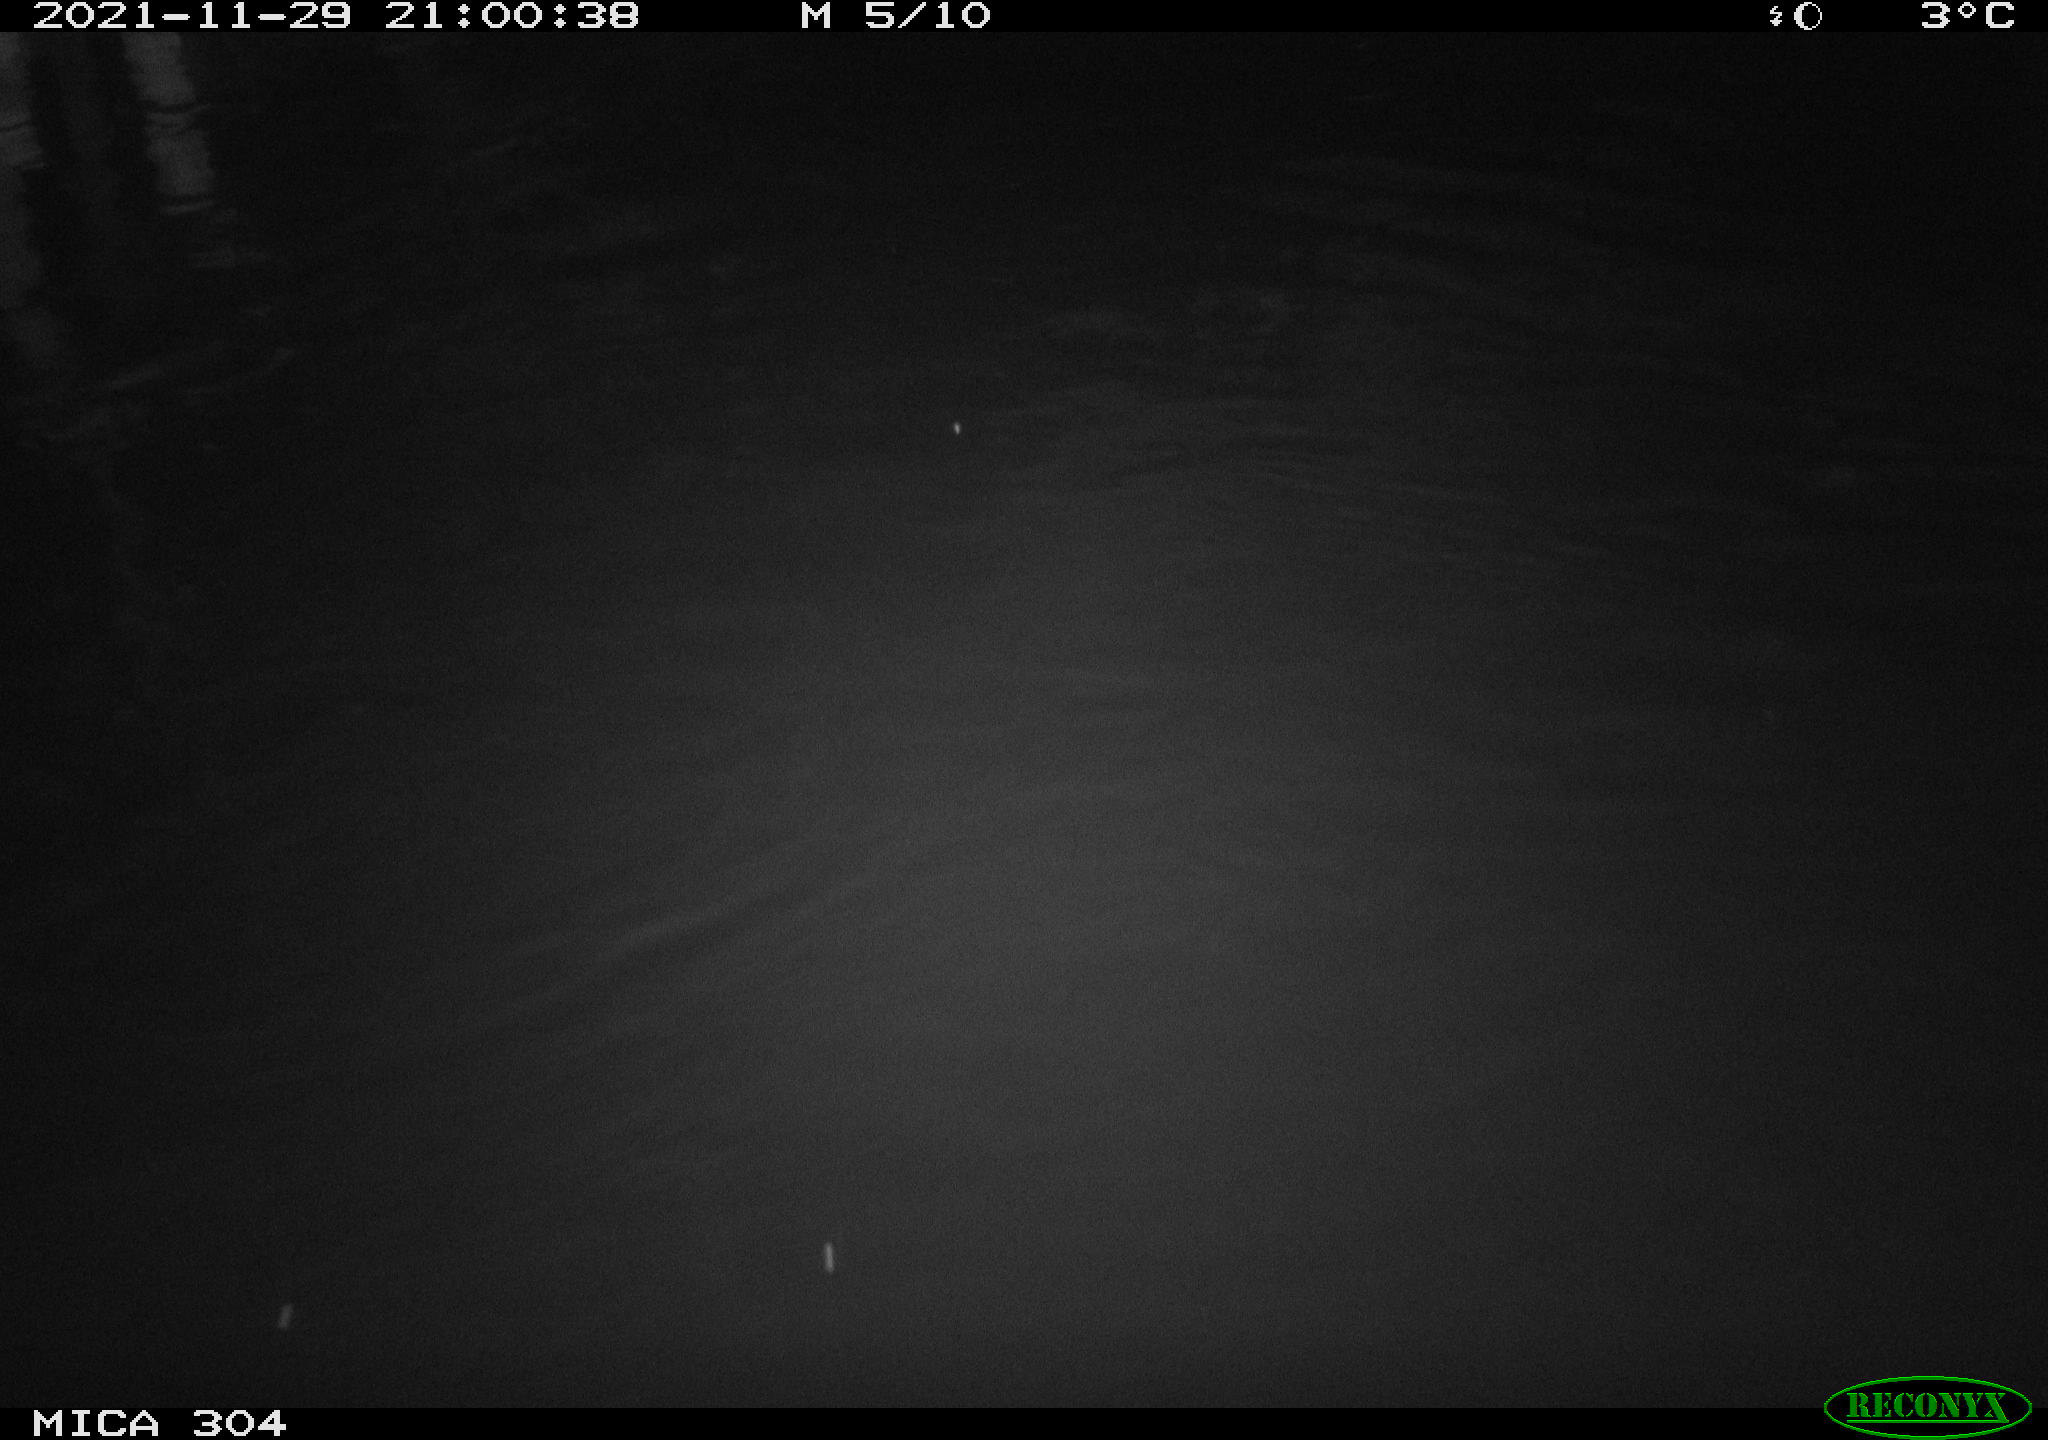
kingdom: Animalia
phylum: Chordata
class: Mammalia
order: Rodentia
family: Muridae
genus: Rattus
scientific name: Rattus norvegicus
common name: Brown rat
